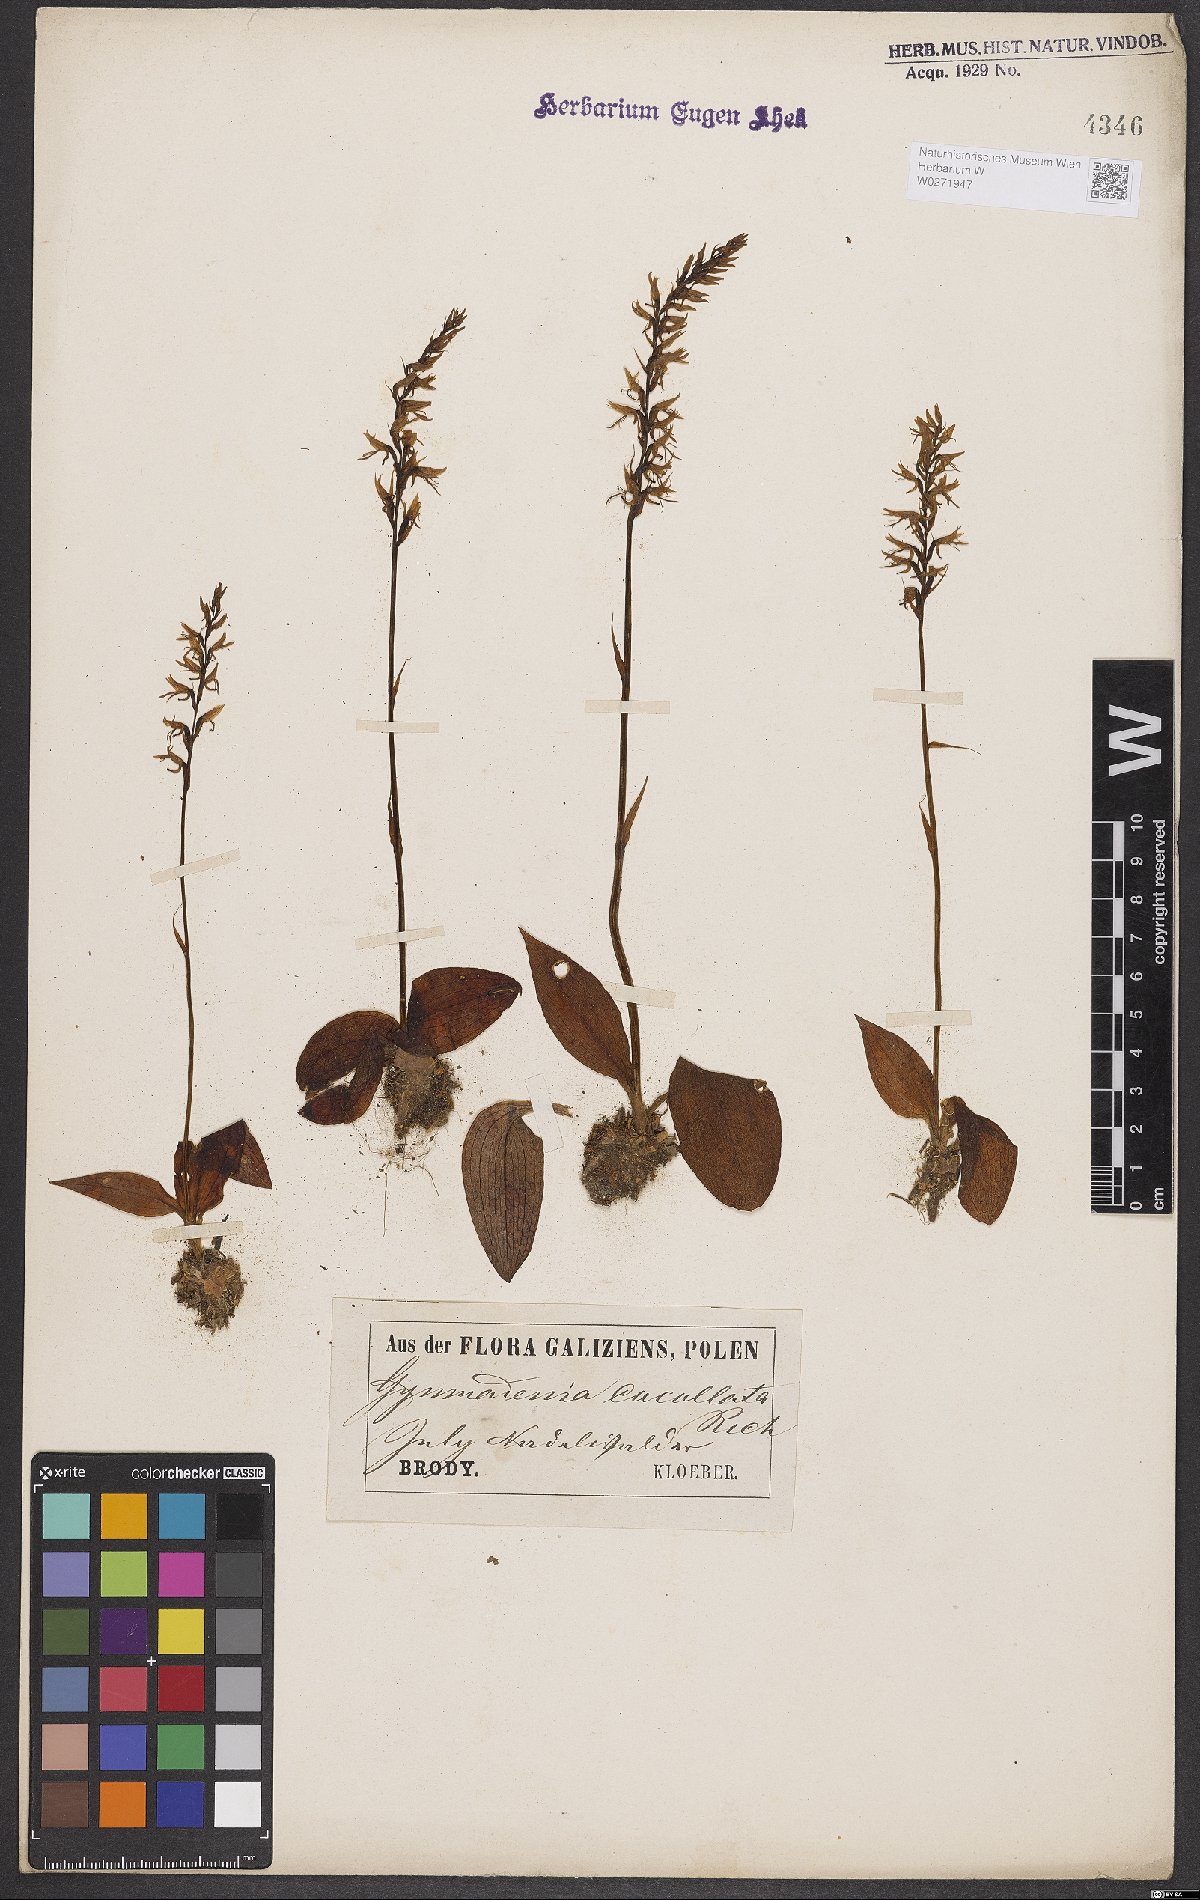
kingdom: Plantae
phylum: Tracheophyta
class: Liliopsida
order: Asparagales
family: Orchidaceae
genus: Hemipilia
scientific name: Hemipilia cucullata
